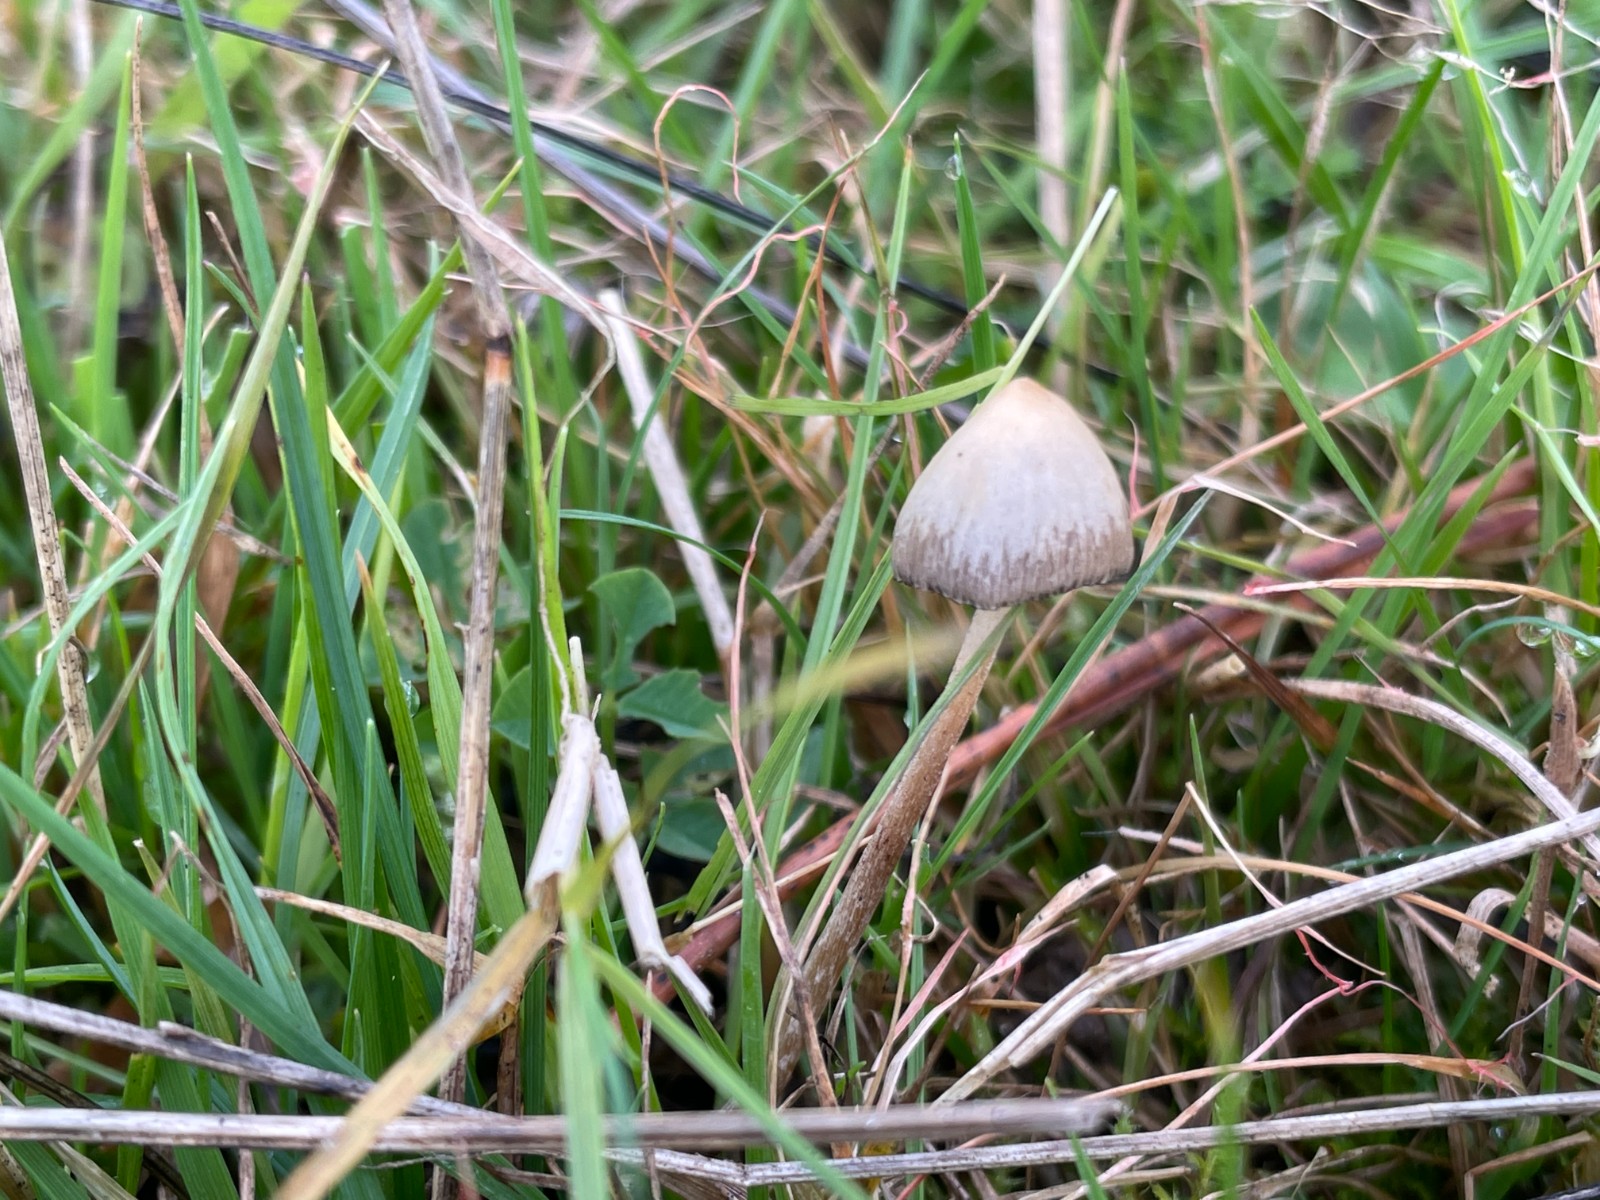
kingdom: Fungi
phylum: Basidiomycota
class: Agaricomycetes
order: Agaricales
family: Hymenogastraceae
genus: Psilocybe
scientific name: Psilocybe semilanceata
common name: spids nøgenhat
